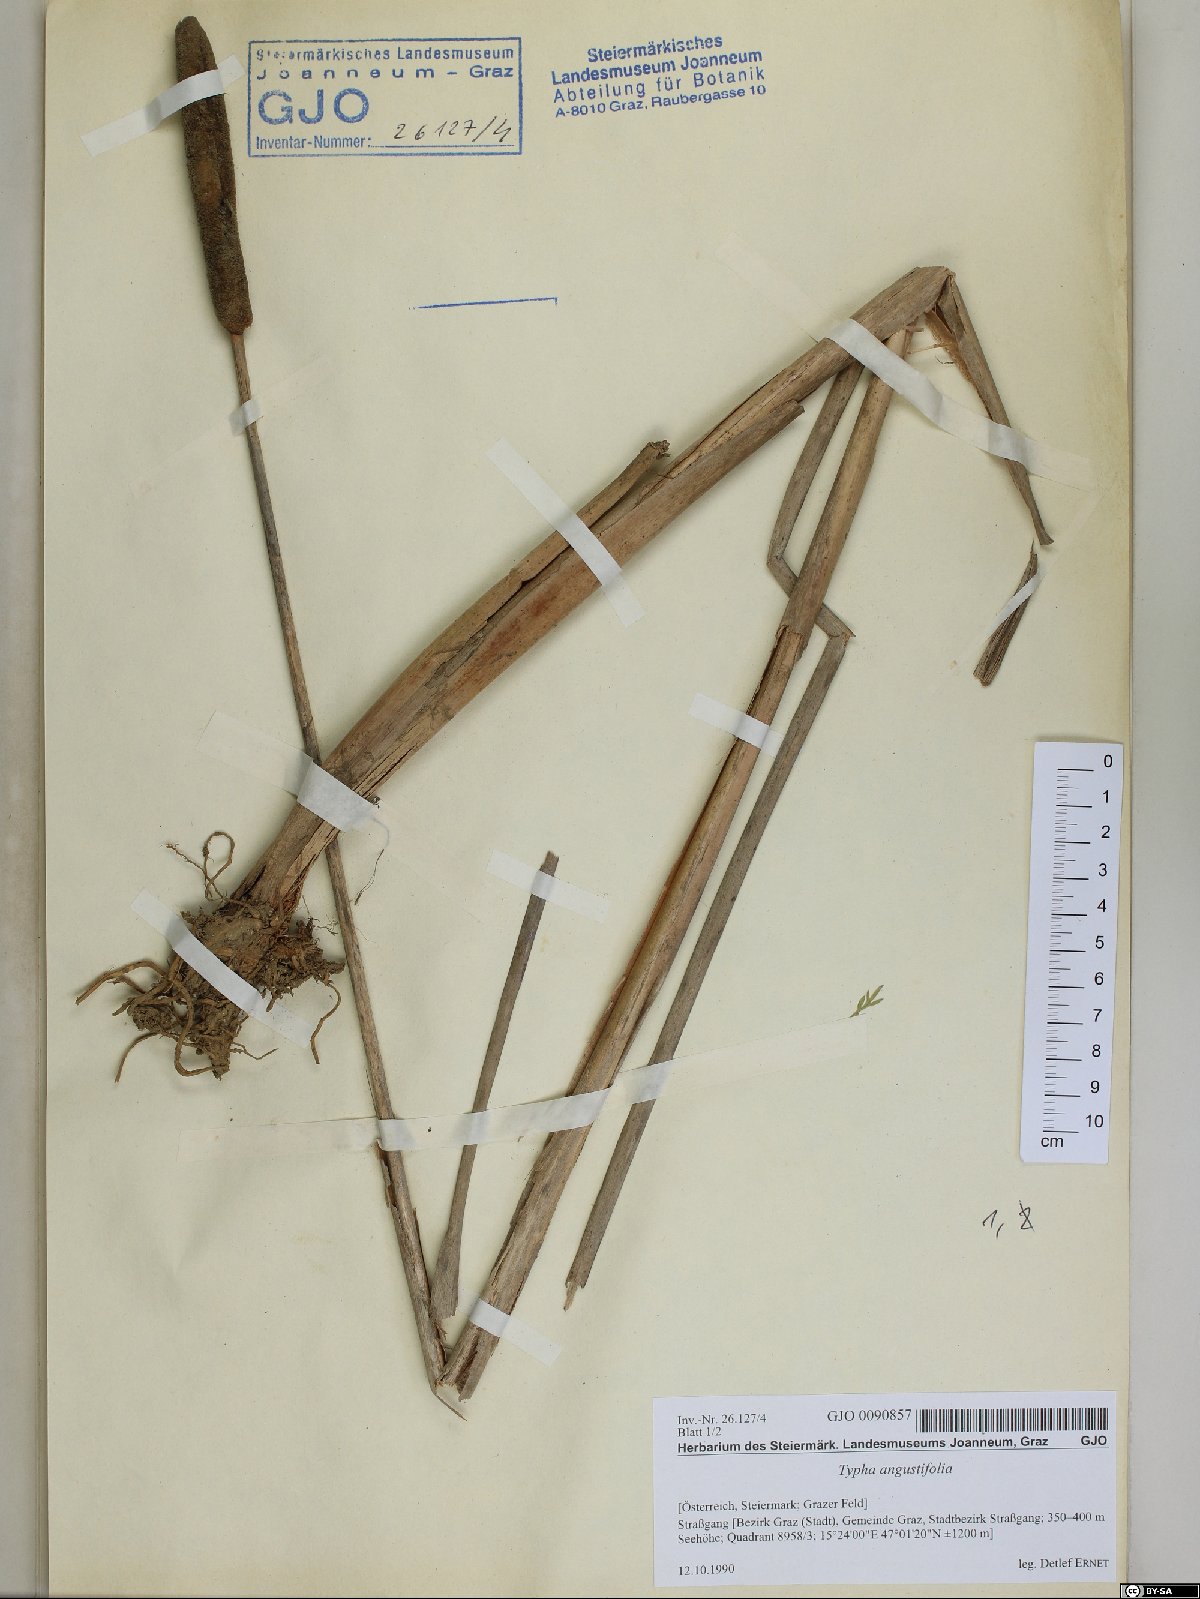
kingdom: Plantae
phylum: Tracheophyta
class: Liliopsida
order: Poales
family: Typhaceae
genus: Typha
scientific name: Typha angustifolia
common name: Lesser bulrush
